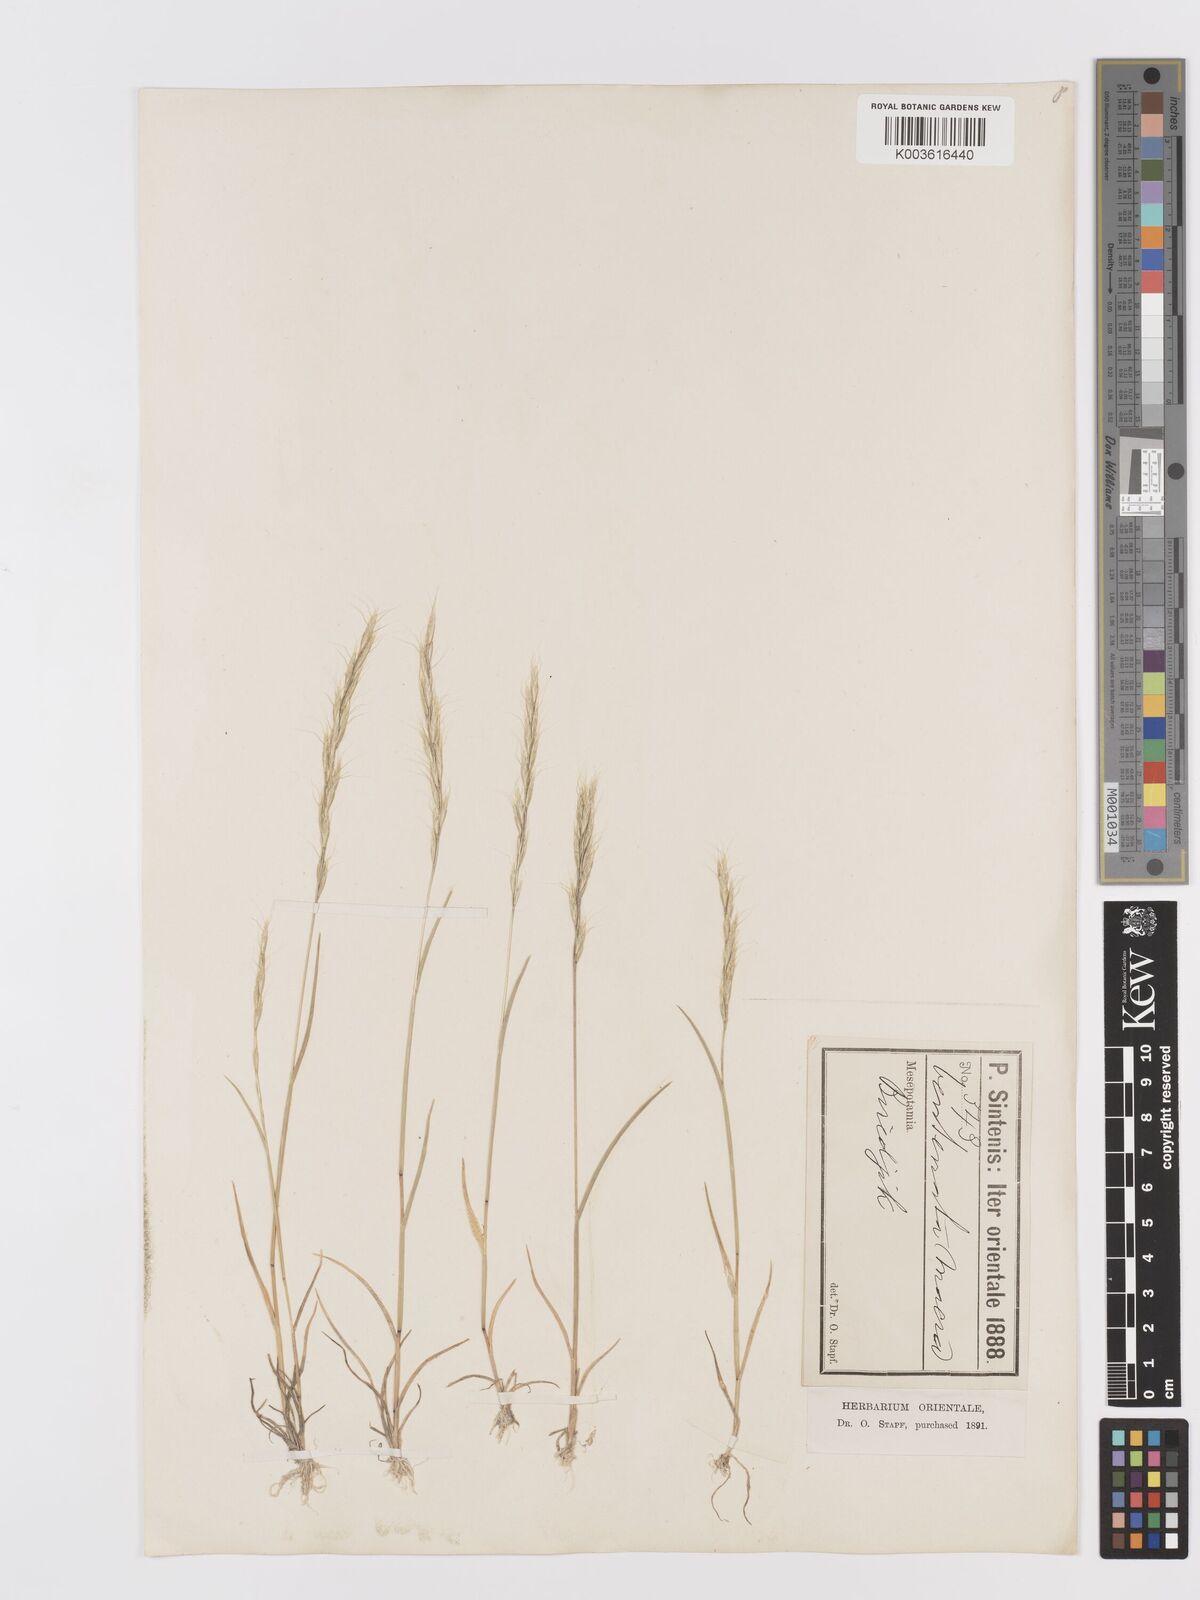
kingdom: Plantae
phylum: Tracheophyta
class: Liliopsida
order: Poales
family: Poaceae
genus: Ventenata
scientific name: Ventenata macra
